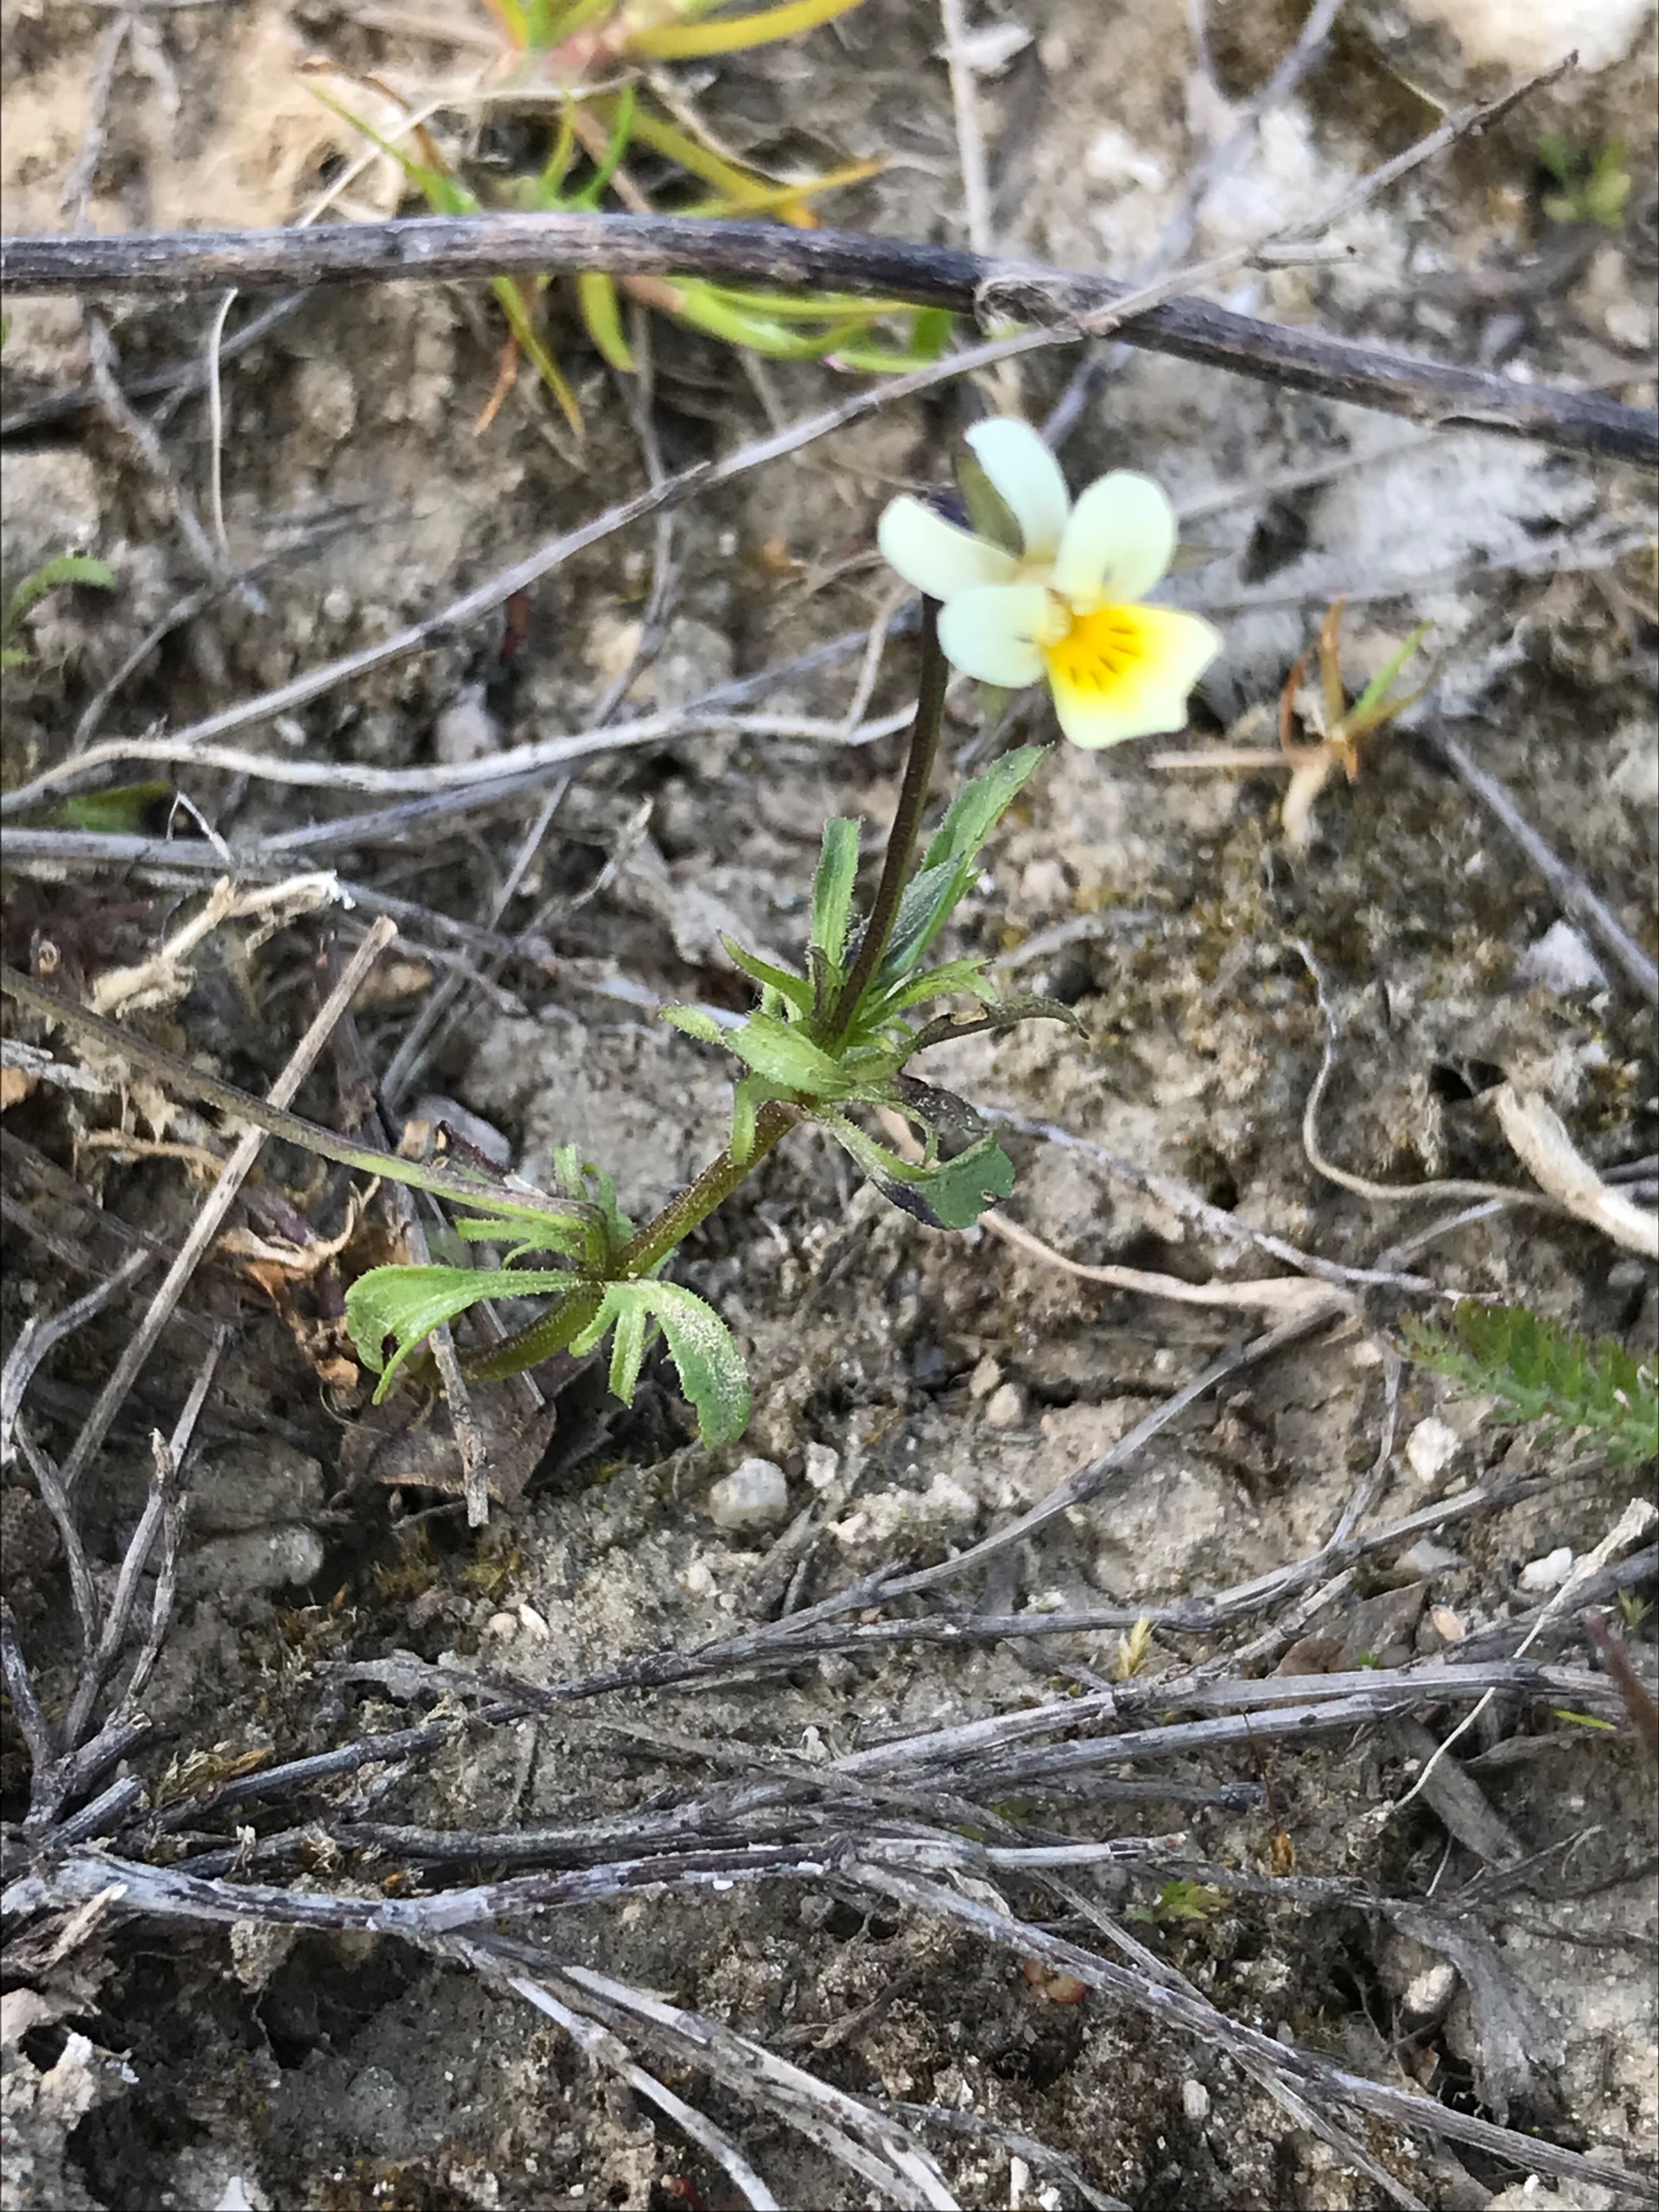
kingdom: Plantae
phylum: Tracheophyta
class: Magnoliopsida
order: Malpighiales
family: Violaceae
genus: Viola
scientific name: Viola arvensis
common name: Ager-stedmoderblomst
